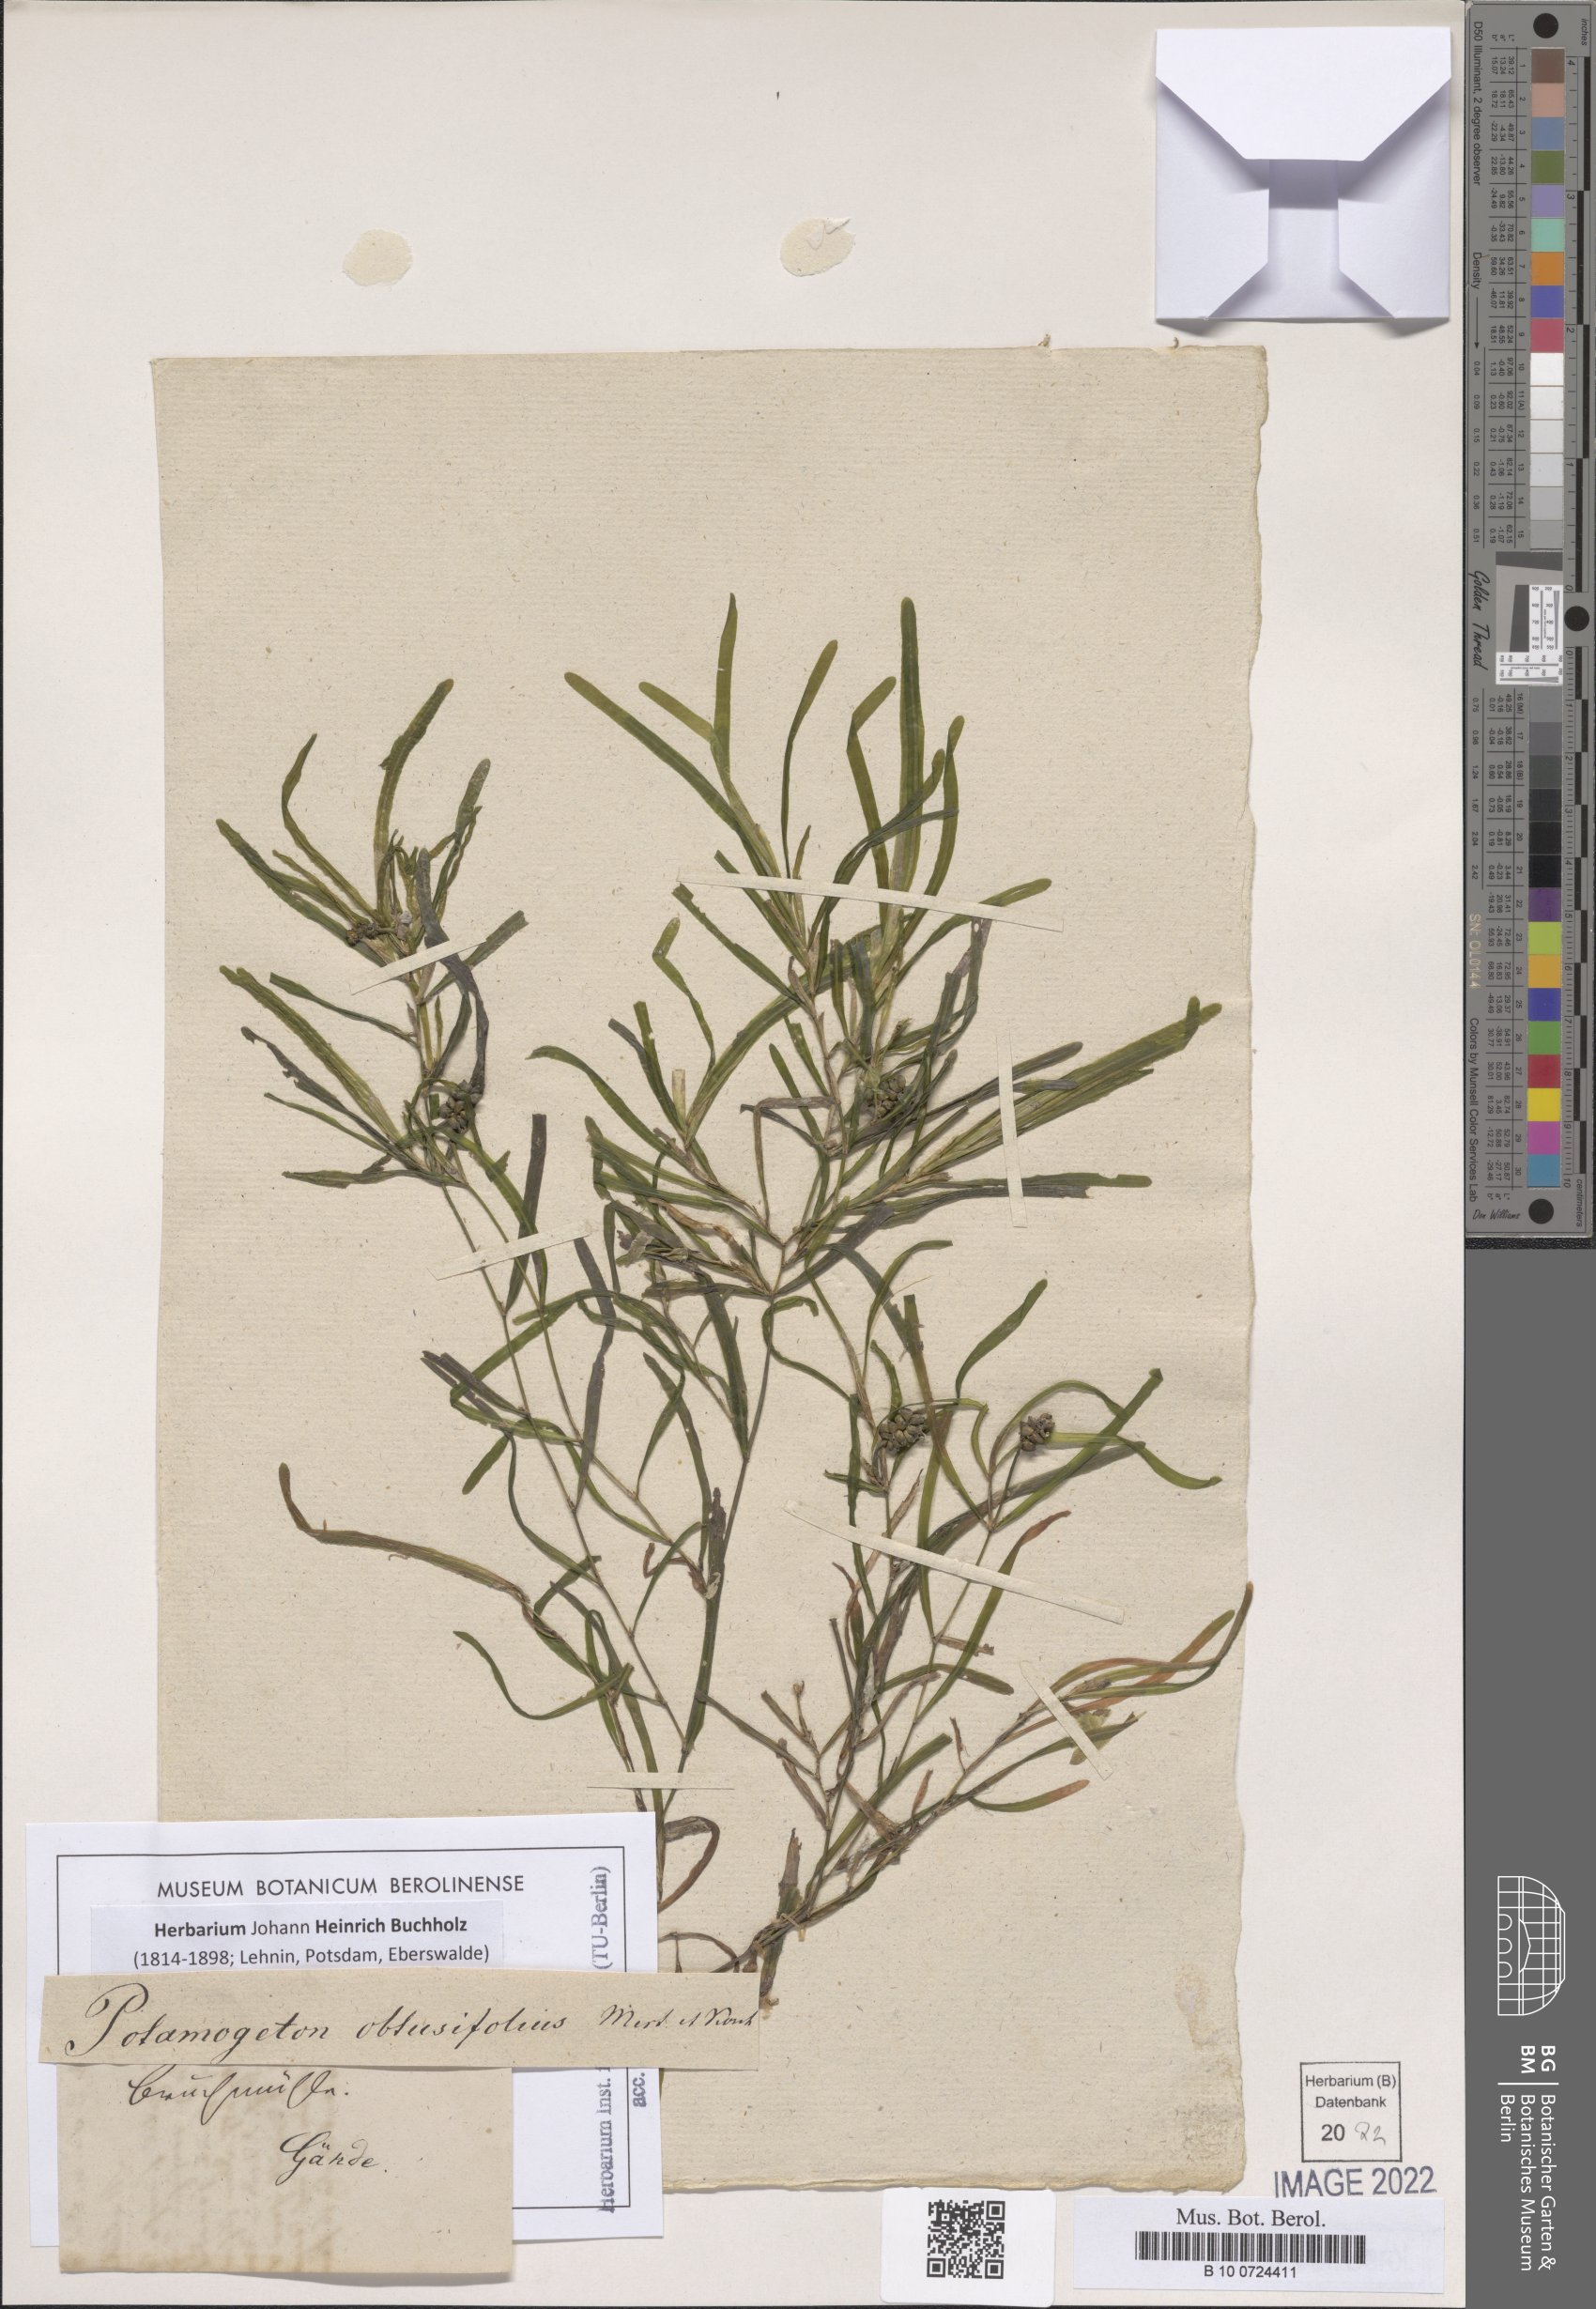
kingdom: Plantae
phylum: Tracheophyta
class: Liliopsida
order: Alismatales
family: Potamogetonaceae
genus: Potamogeton
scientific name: Potamogeton obtusifolius
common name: Blunt-leaved pondweed
